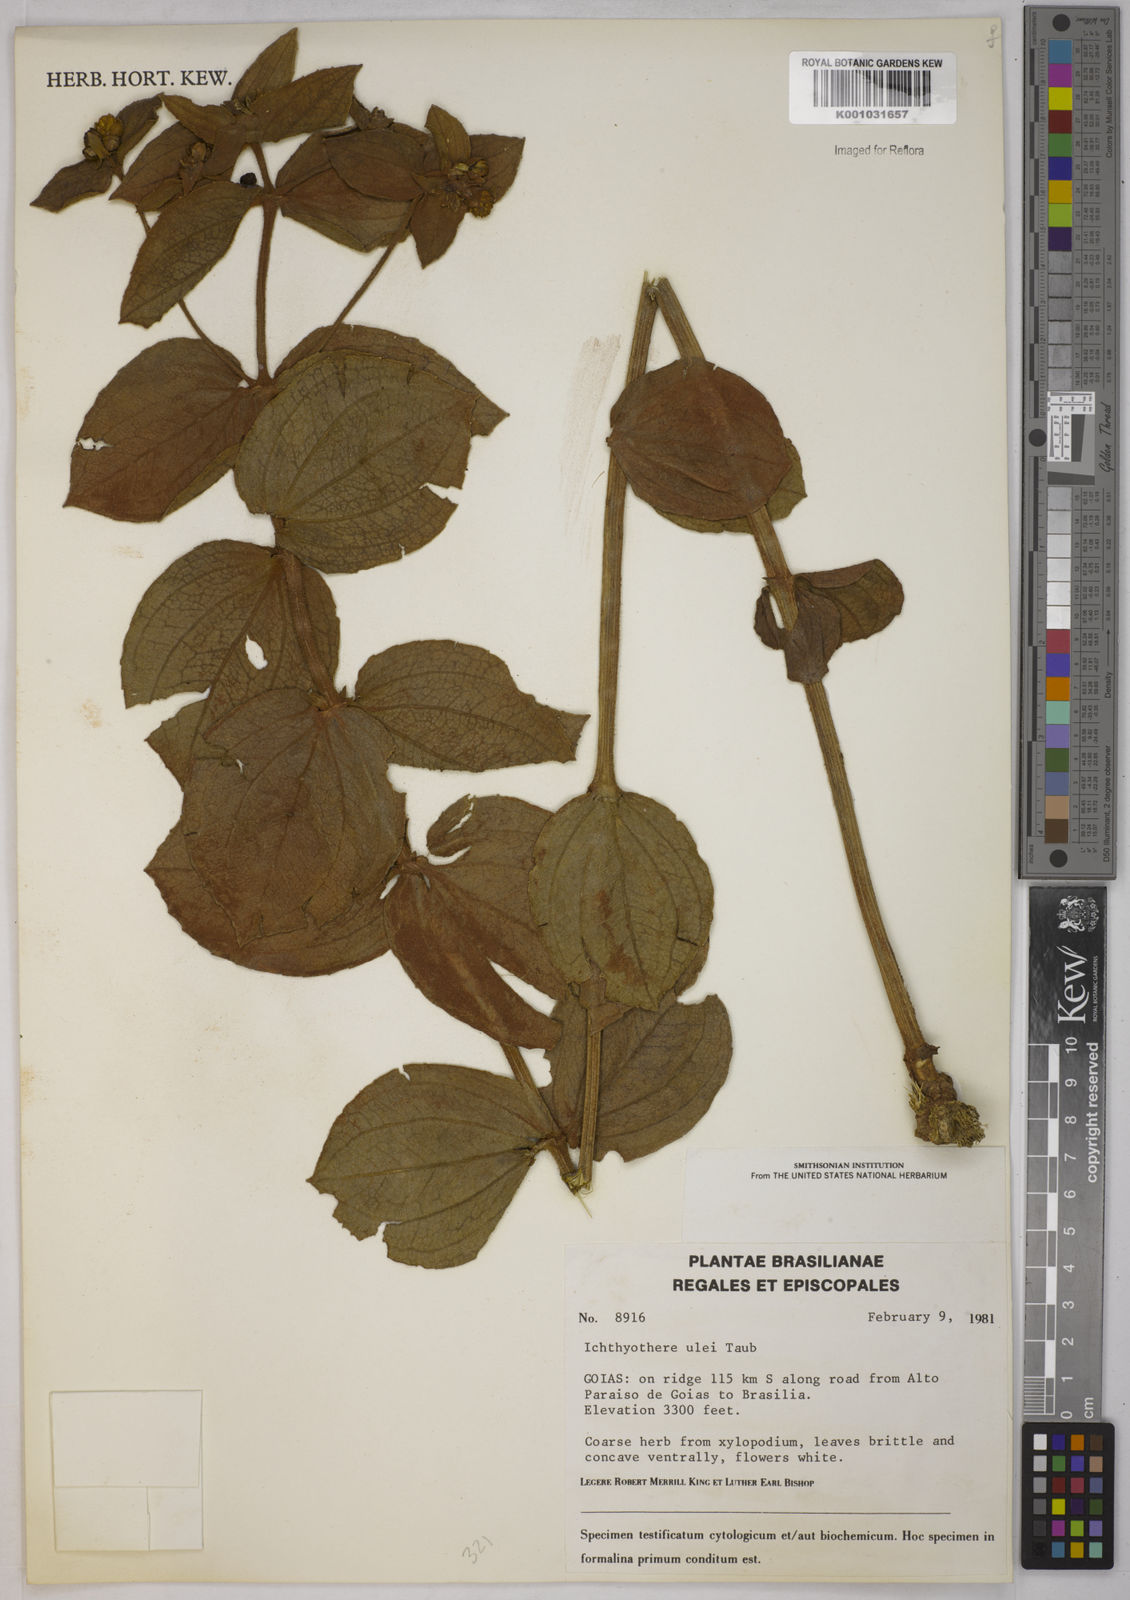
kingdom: Plantae
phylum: Tracheophyta
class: Magnoliopsida
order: Asterales
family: Asteraceae
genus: Ichthyothere
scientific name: Ichthyothere ulei
